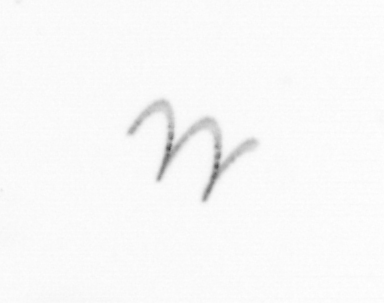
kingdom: Chromista
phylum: Ochrophyta
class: Bacillariophyceae
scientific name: Bacillariophyceae
